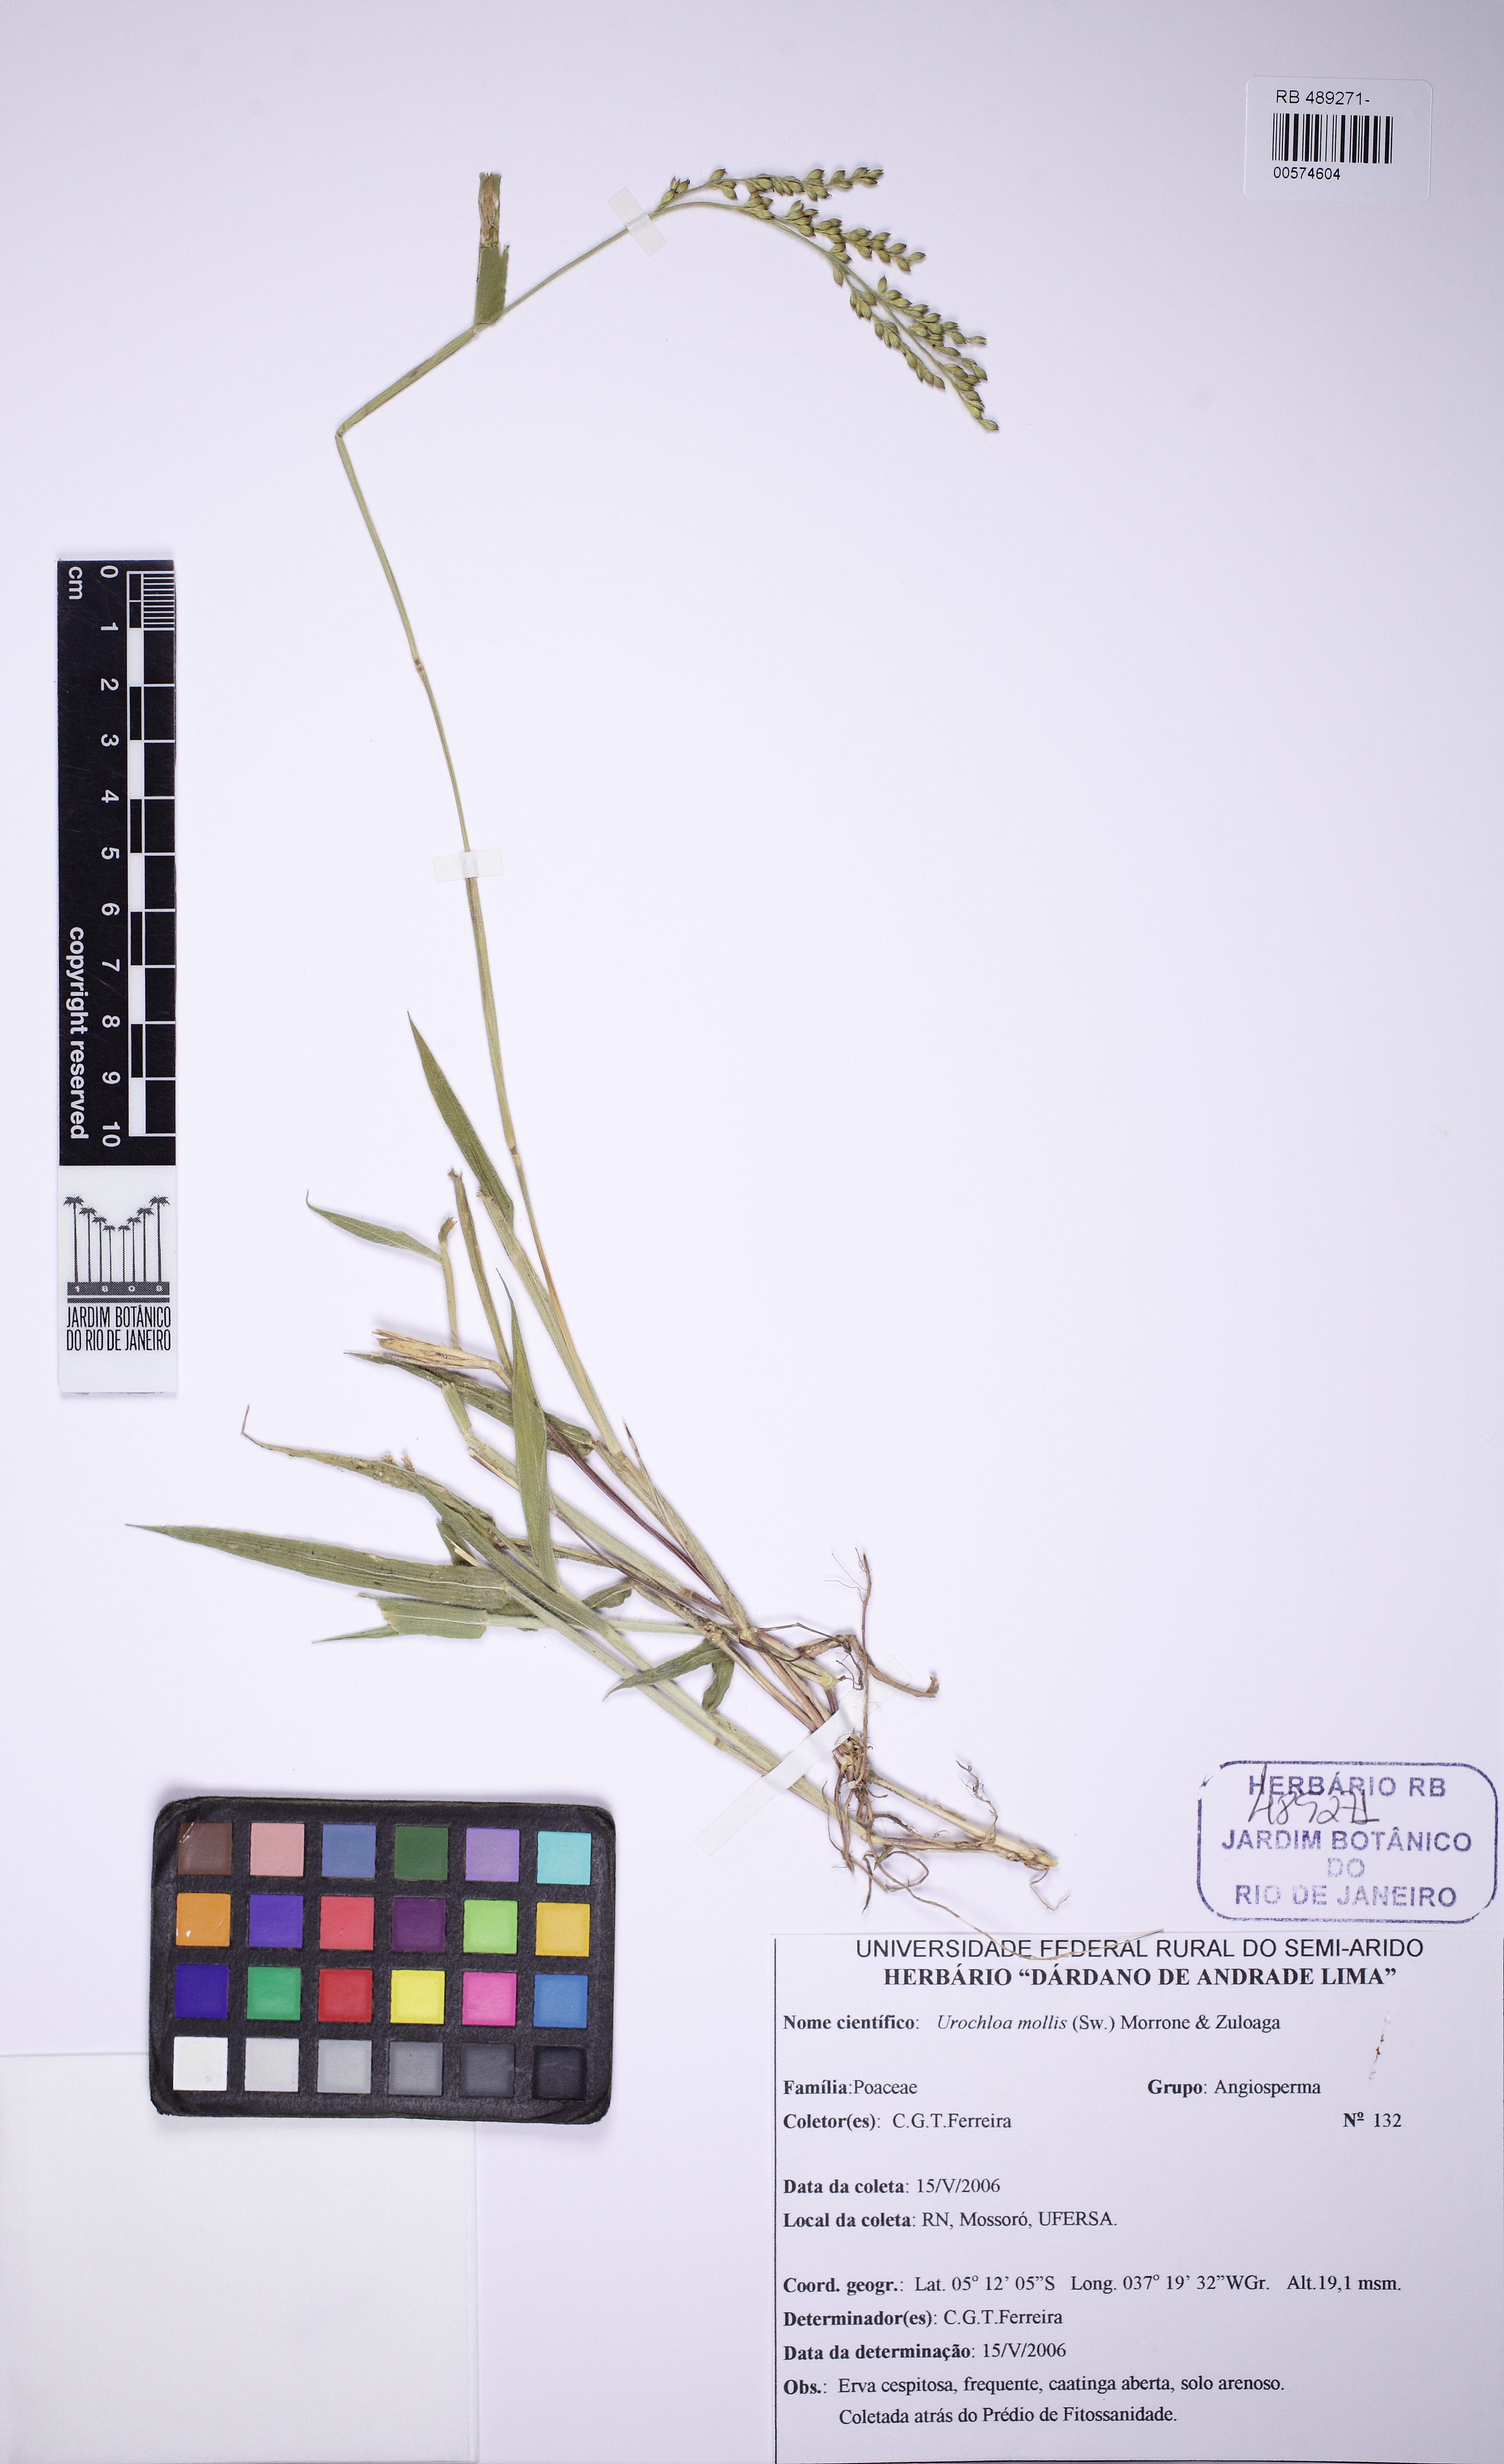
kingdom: Plantae
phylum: Tracheophyta
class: Liliopsida
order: Poales
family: Poaceae
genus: Urochloa
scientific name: Urochloa mollis
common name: Grass
